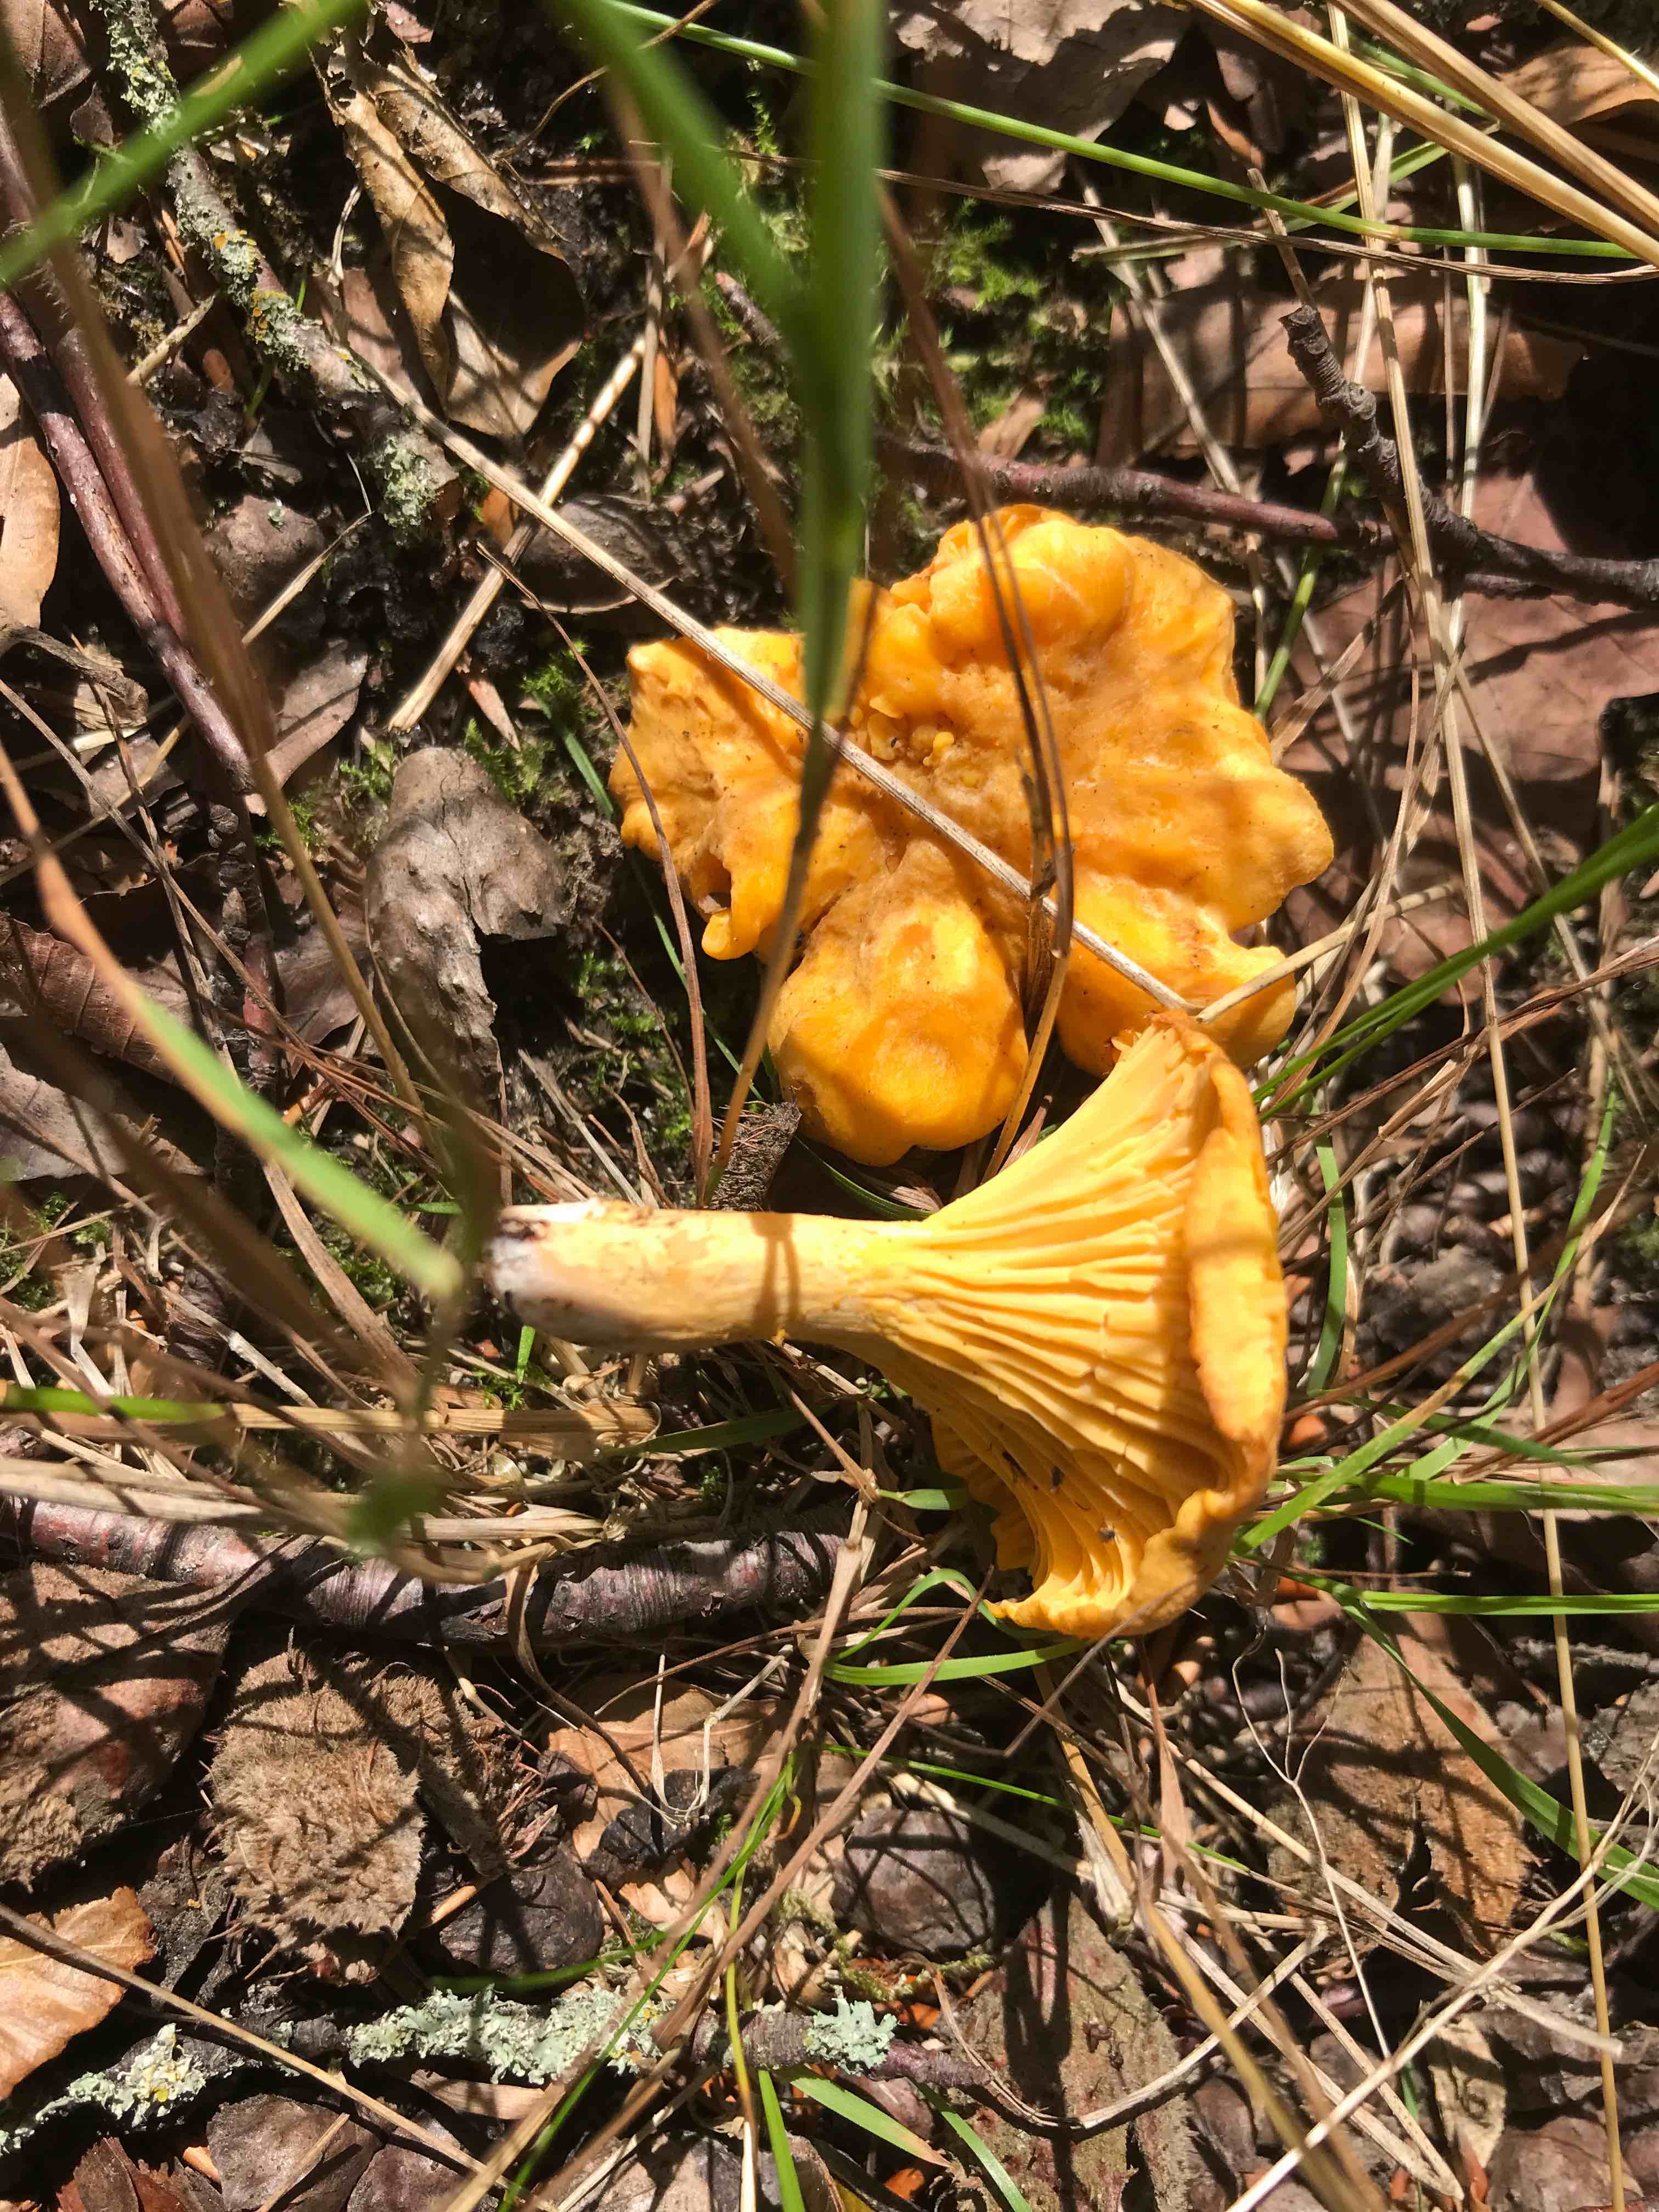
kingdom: Fungi
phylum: Basidiomycota
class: Agaricomycetes
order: Cantharellales
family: Hydnaceae
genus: Cantharellus
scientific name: Cantharellus cibarius
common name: almindelig kantarel
